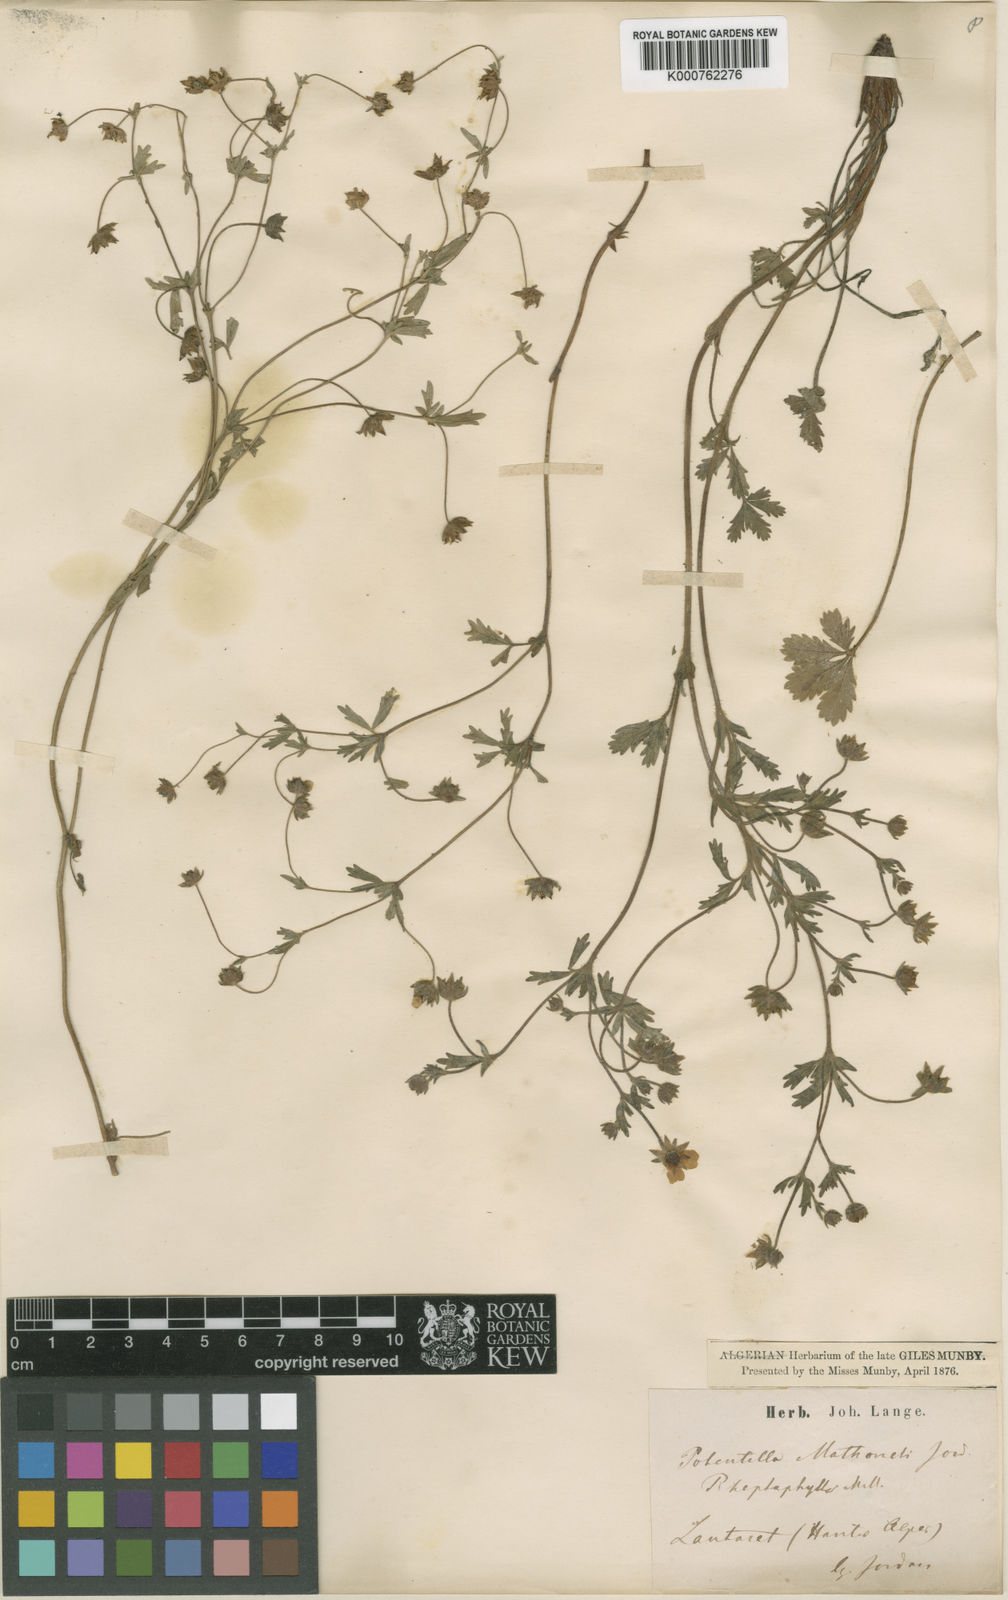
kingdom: Plantae
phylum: Tracheophyta
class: Magnoliopsida
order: Rosales
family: Rosaceae
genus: Potentilla
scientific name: Potentilla thuringiaca
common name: European cinquefoil
